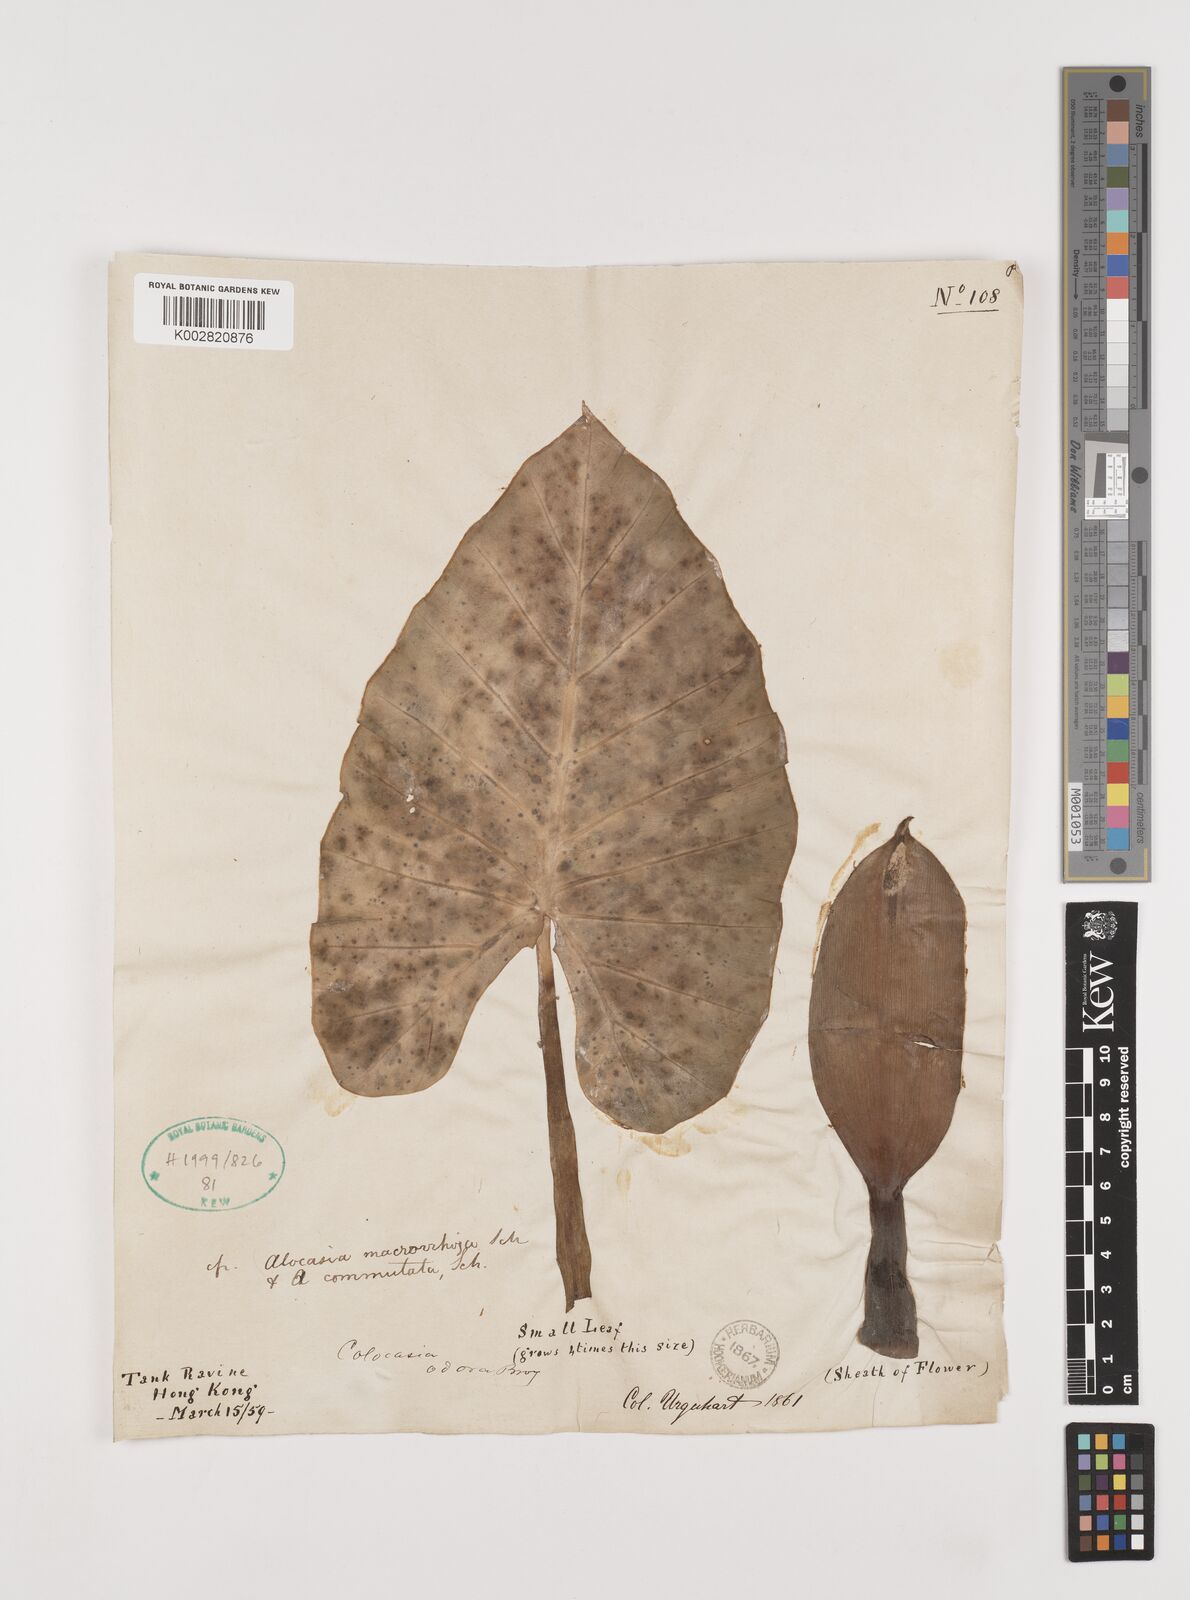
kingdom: Plantae
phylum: Tracheophyta
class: Liliopsida
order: Alismatales
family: Araceae
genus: Alocasia
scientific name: Alocasia macrorrhizos
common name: Giant taro
